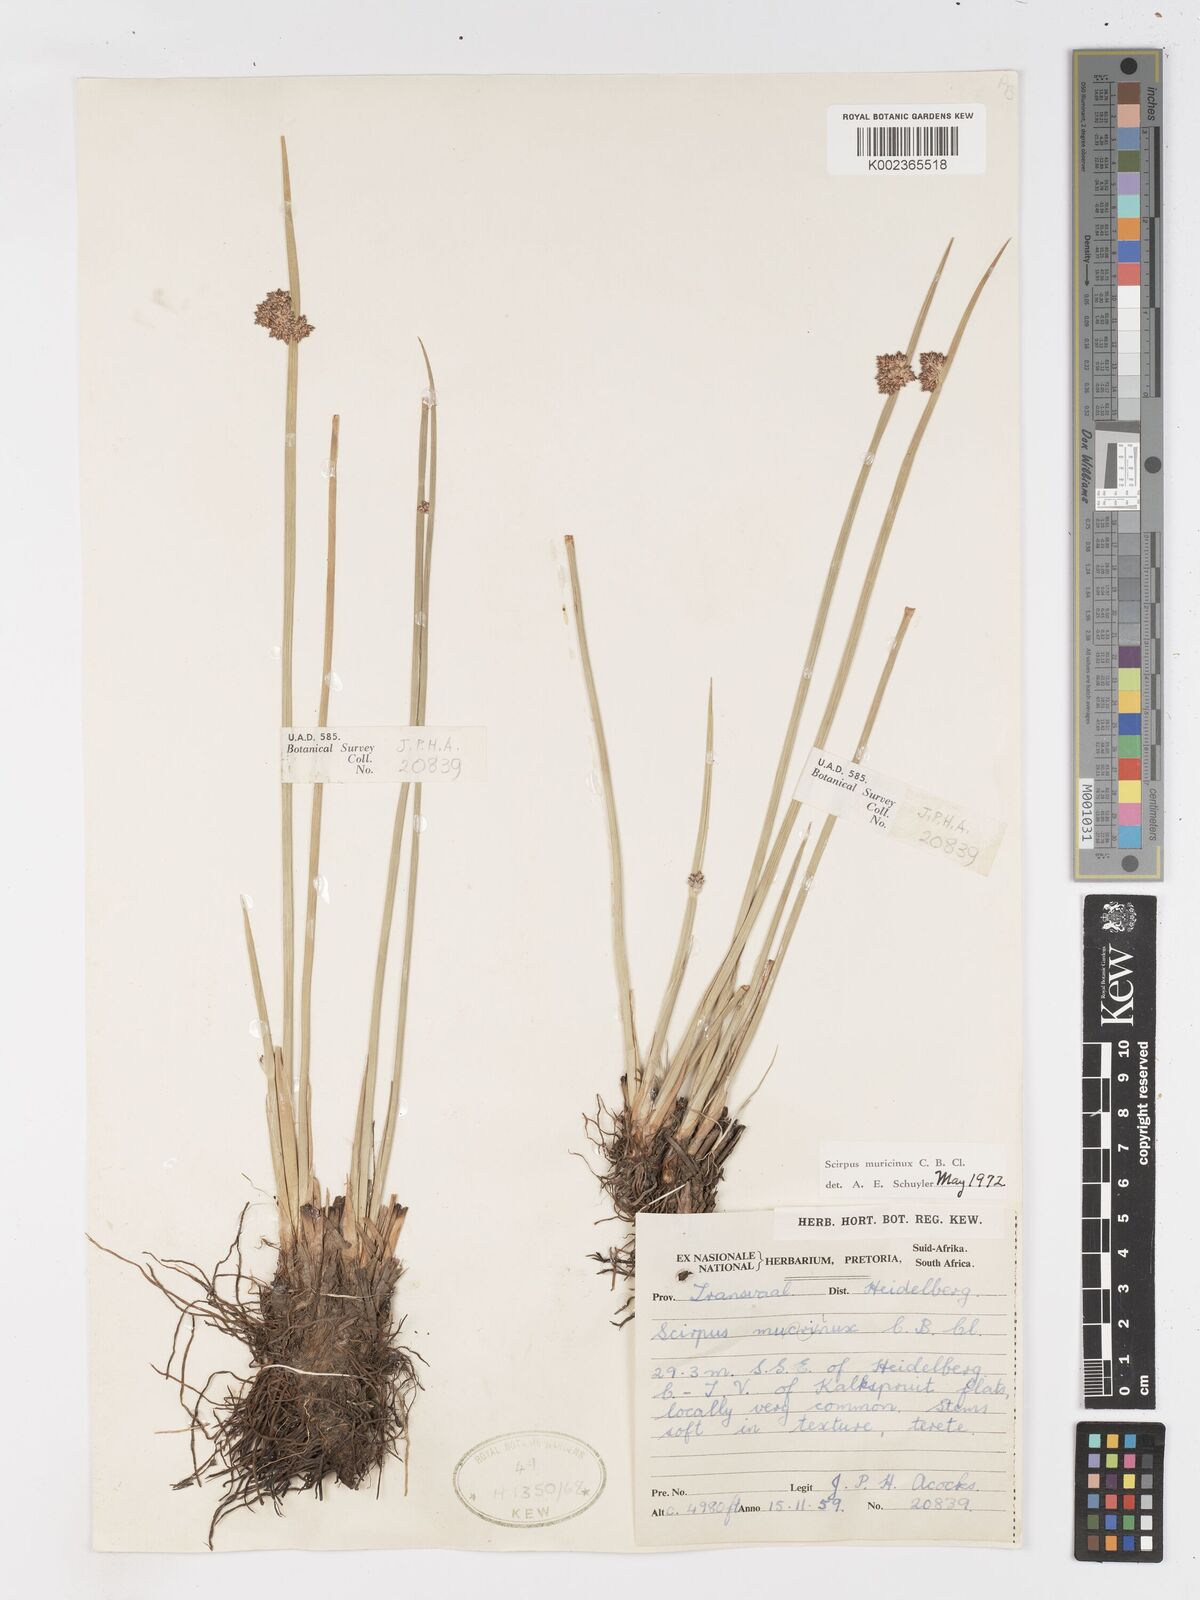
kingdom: Plantae
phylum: Tracheophyta
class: Liliopsida
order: Poales
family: Cyperaceae
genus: Schoenoplectiella
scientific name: Schoenoplectiella muricinux
